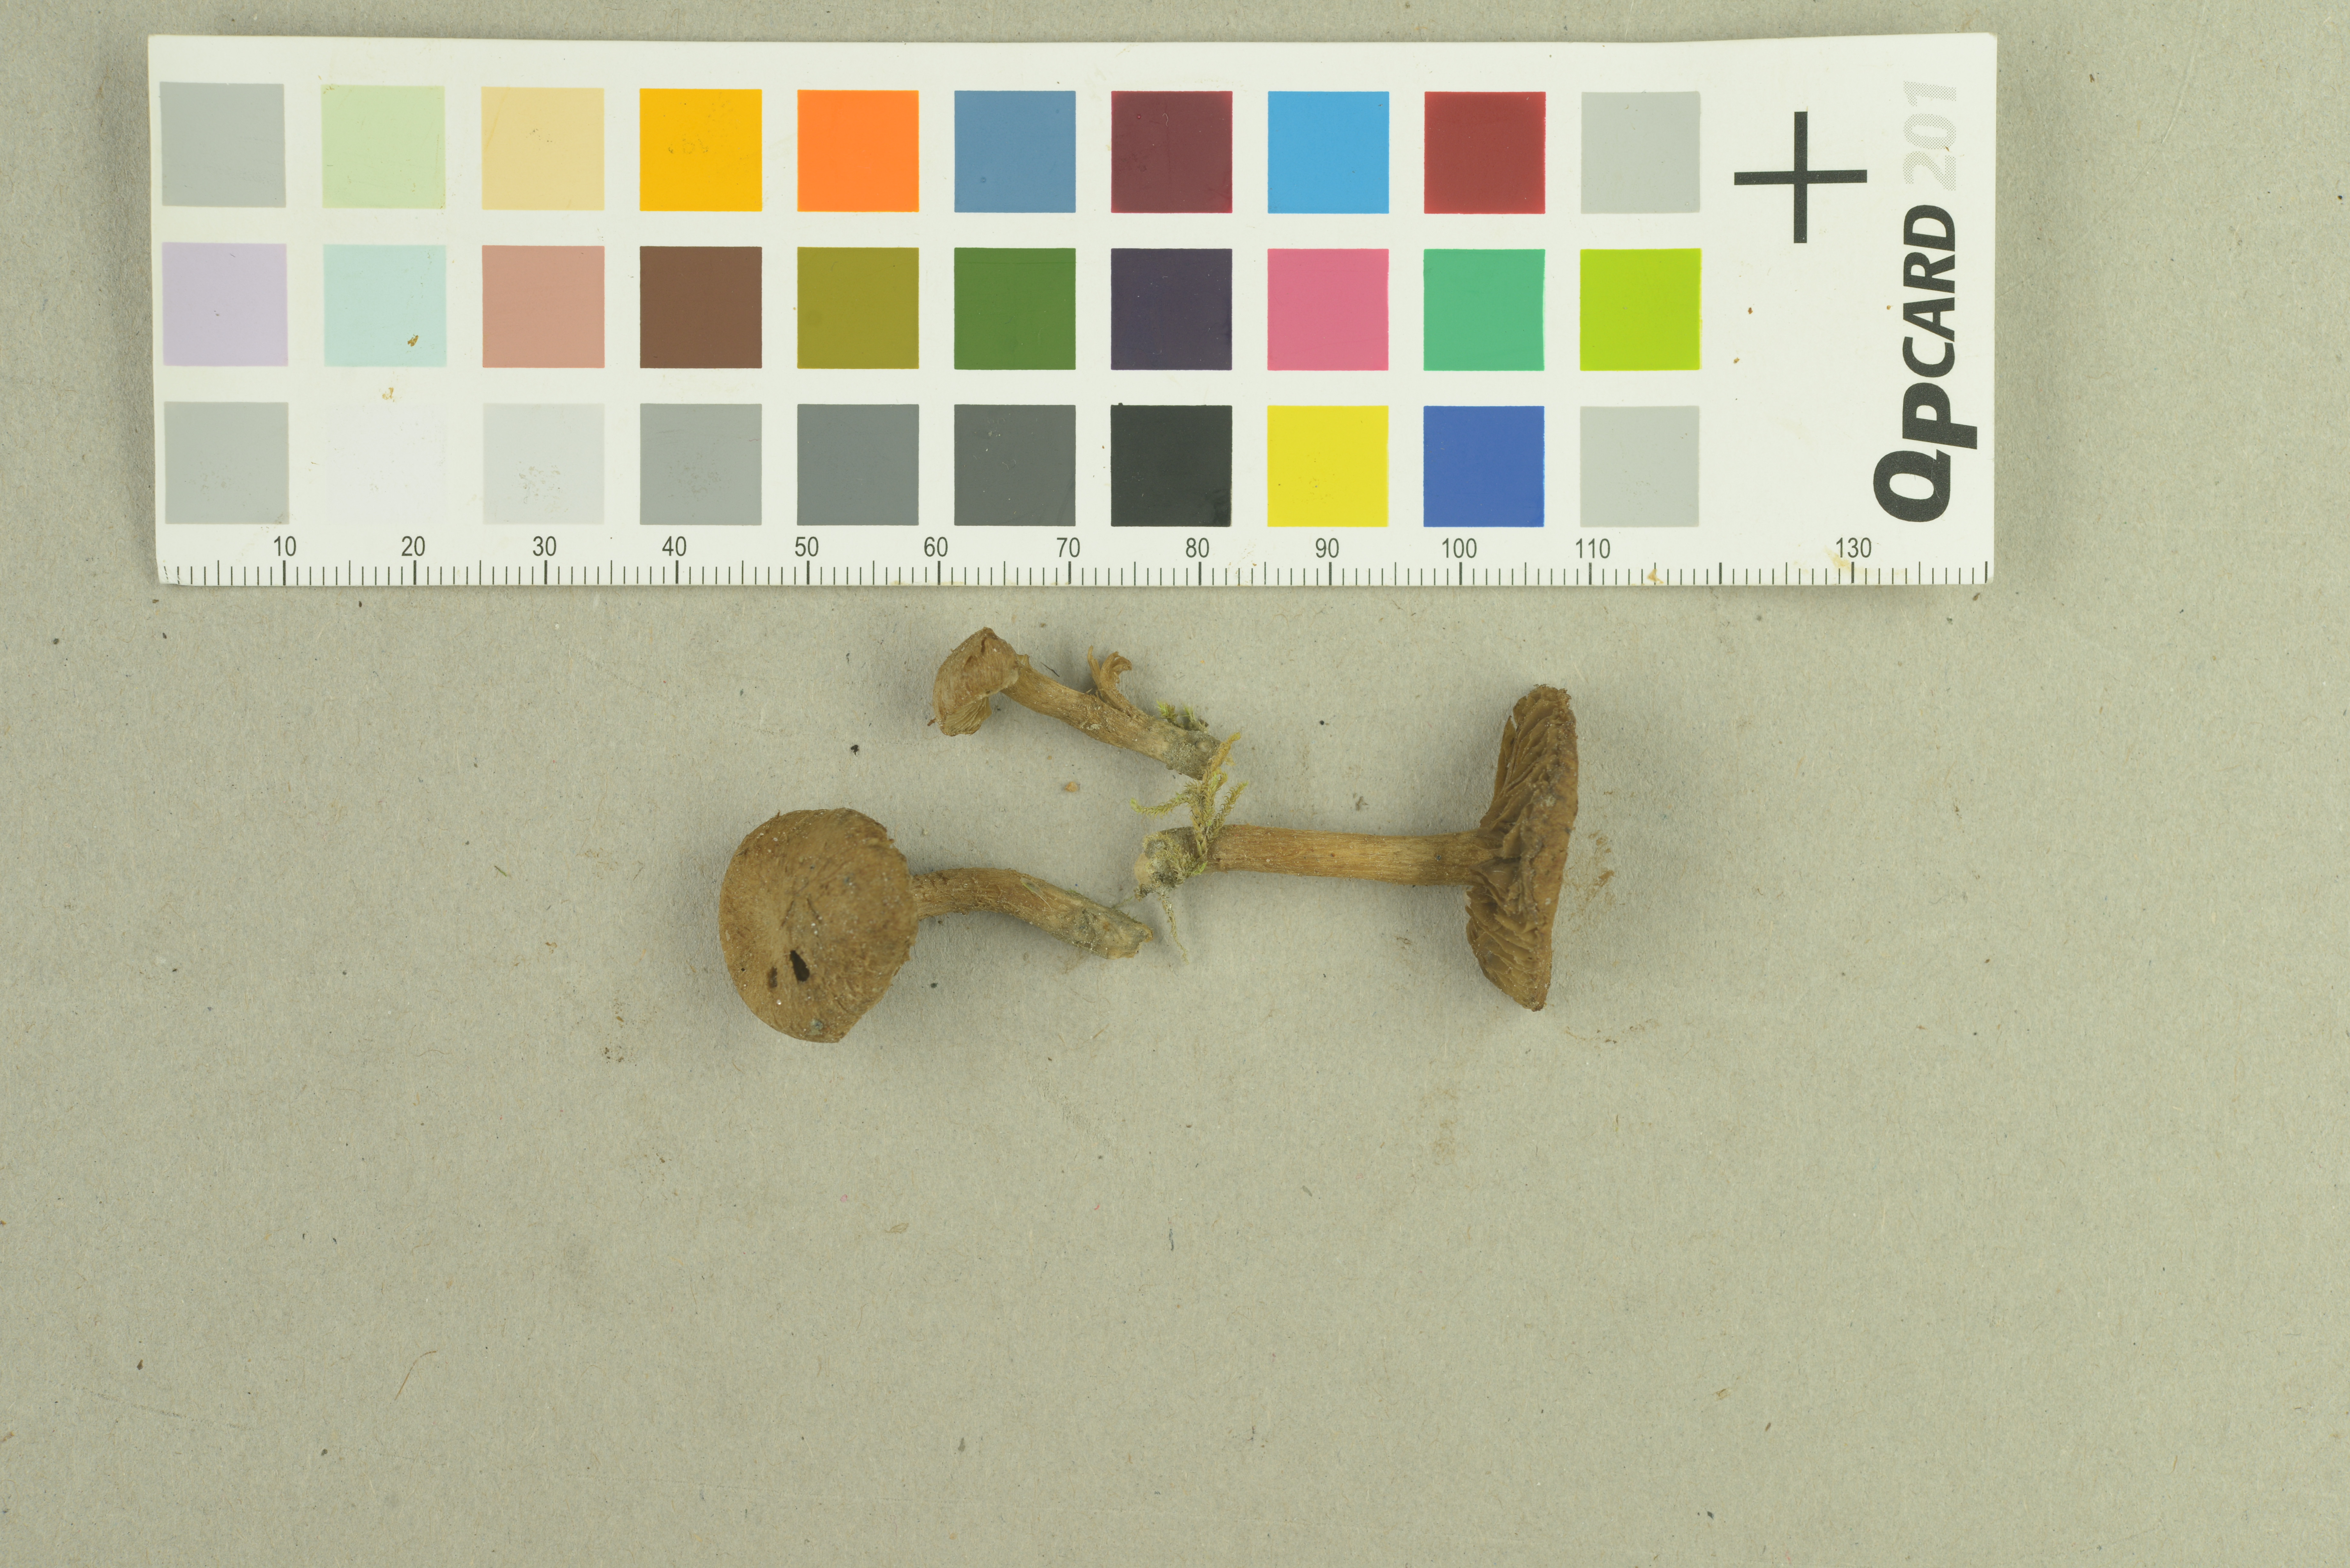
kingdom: Fungi
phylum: Basidiomycota
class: Agaricomycetes
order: Agaricales
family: Inocybaceae
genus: Mallocybe
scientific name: Mallocybe leucoloma
